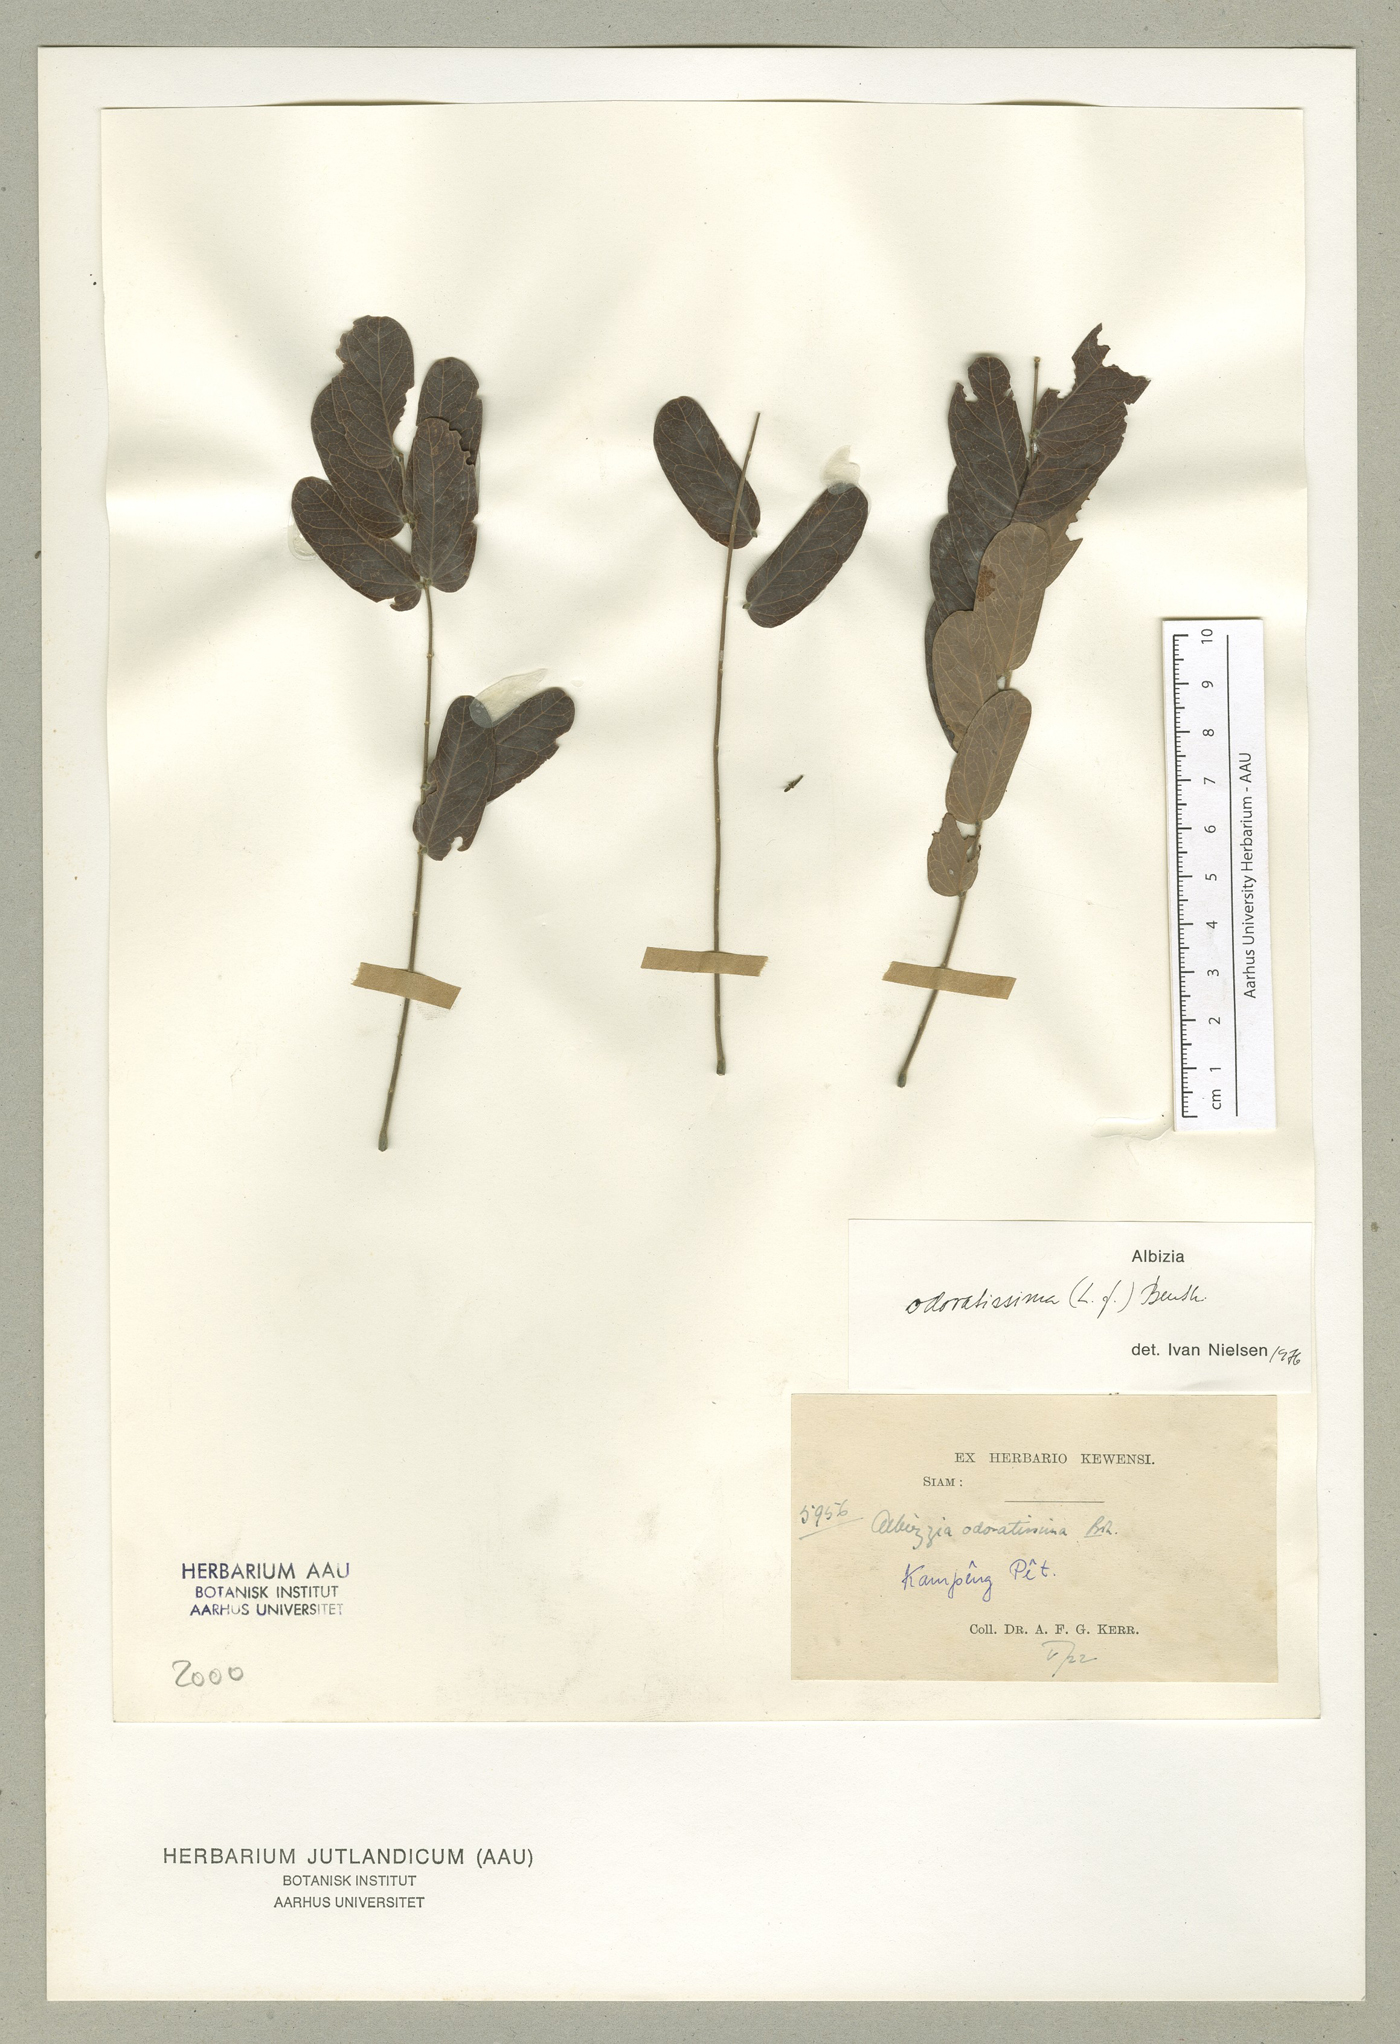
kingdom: Plantae
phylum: Tracheophyta
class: Magnoliopsida
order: Fabales
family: Fabaceae
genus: Albizia
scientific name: Albizia odoratissima
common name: Ceylon rosewood
